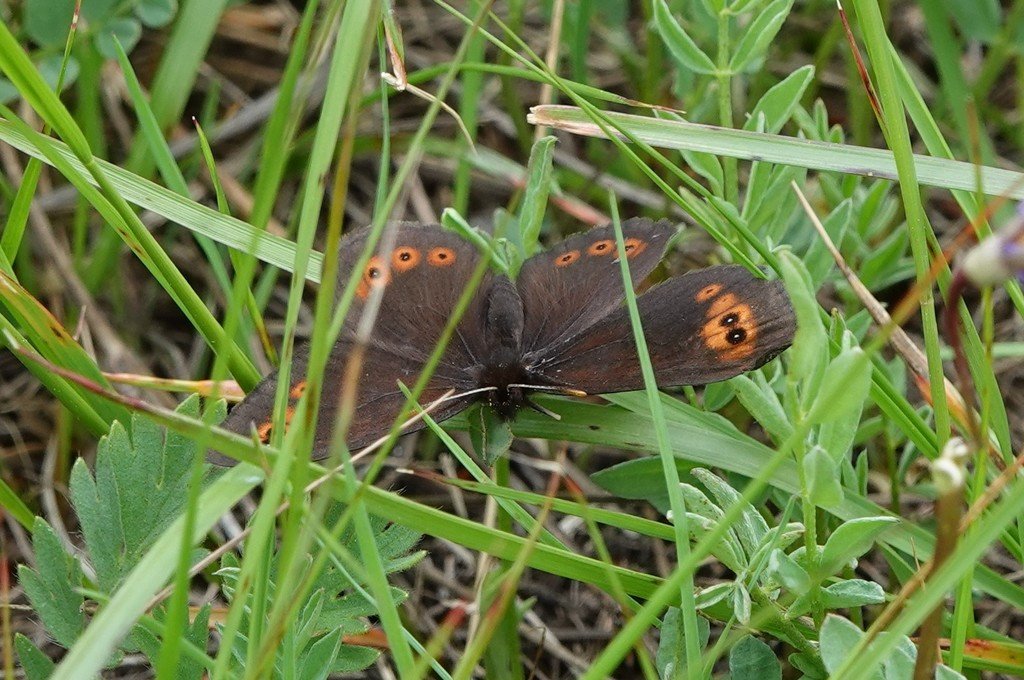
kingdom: Animalia
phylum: Arthropoda
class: Insecta
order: Lepidoptera
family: Nymphalidae
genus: Erebia
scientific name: Erebia epipsodea
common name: Common Alpine
